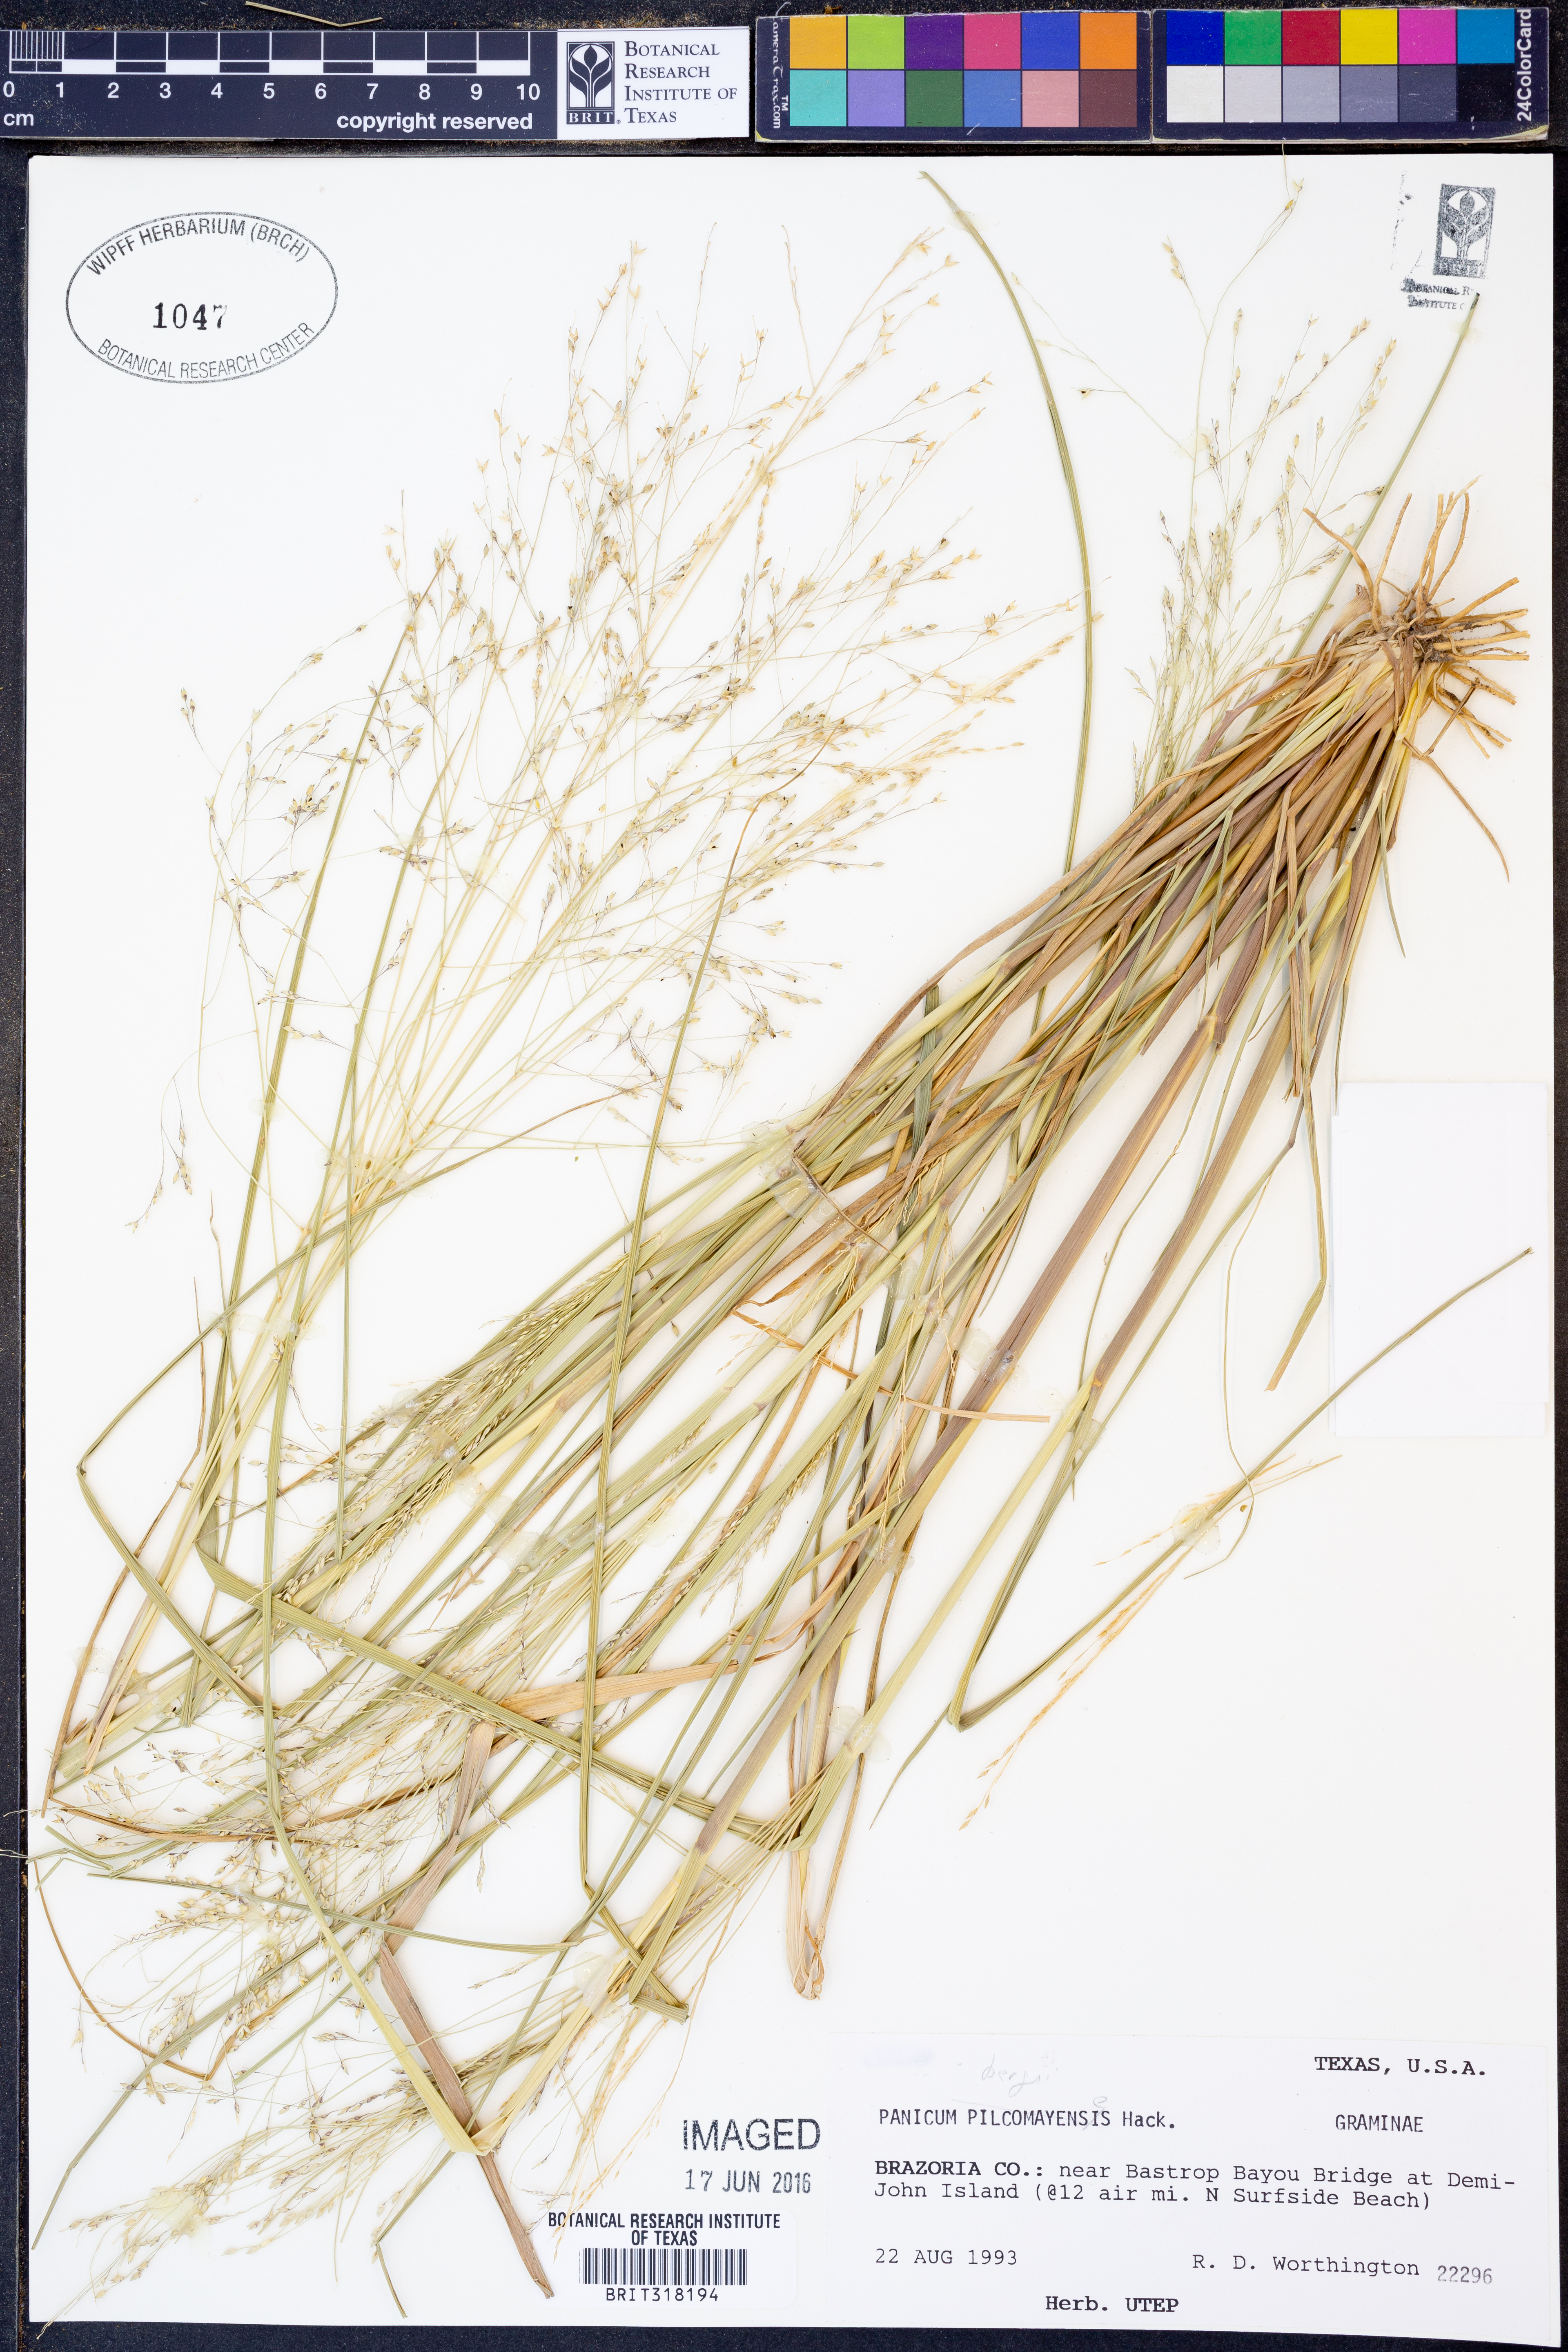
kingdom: Plantae
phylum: Tracheophyta
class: Liliopsida
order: Poales
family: Poaceae
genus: Panicum
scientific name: Panicum bergii
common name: Berg's panicgrass
